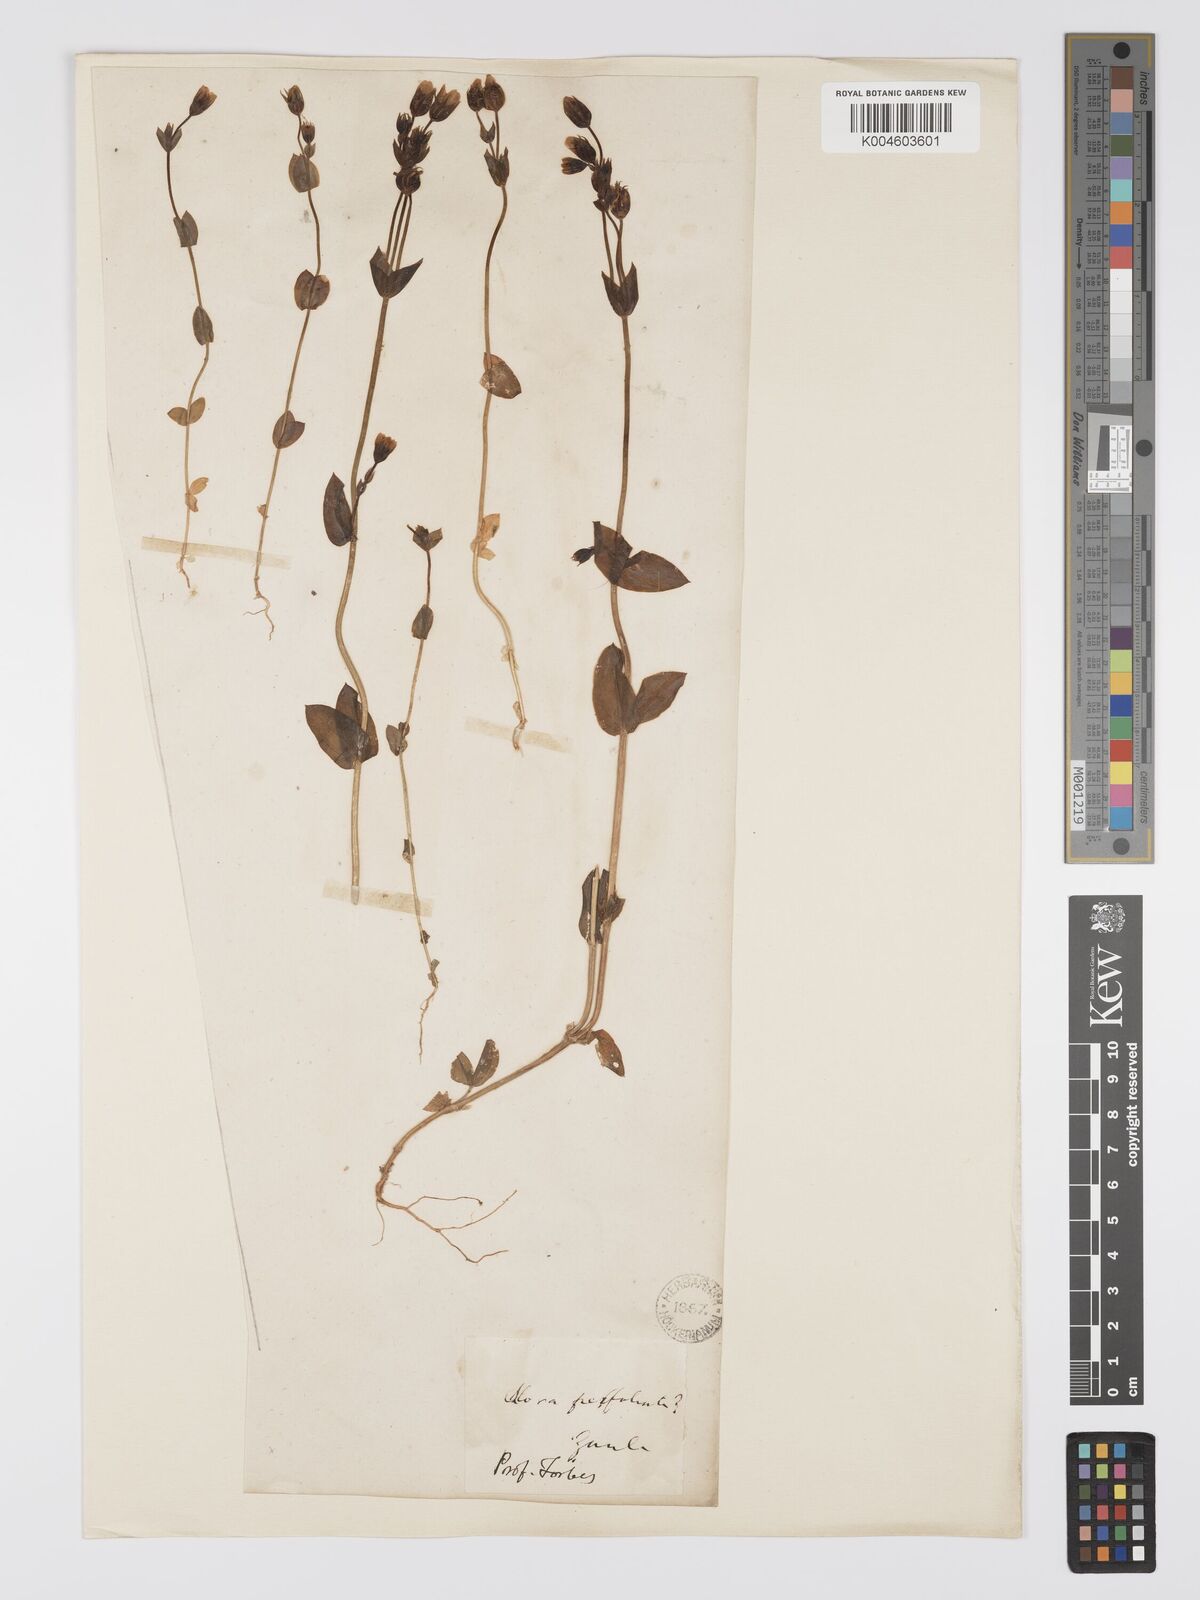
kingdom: Plantae
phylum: Tracheophyta
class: Magnoliopsida
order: Gentianales
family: Gentianaceae
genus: Blackstonia
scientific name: Blackstonia acuminata
